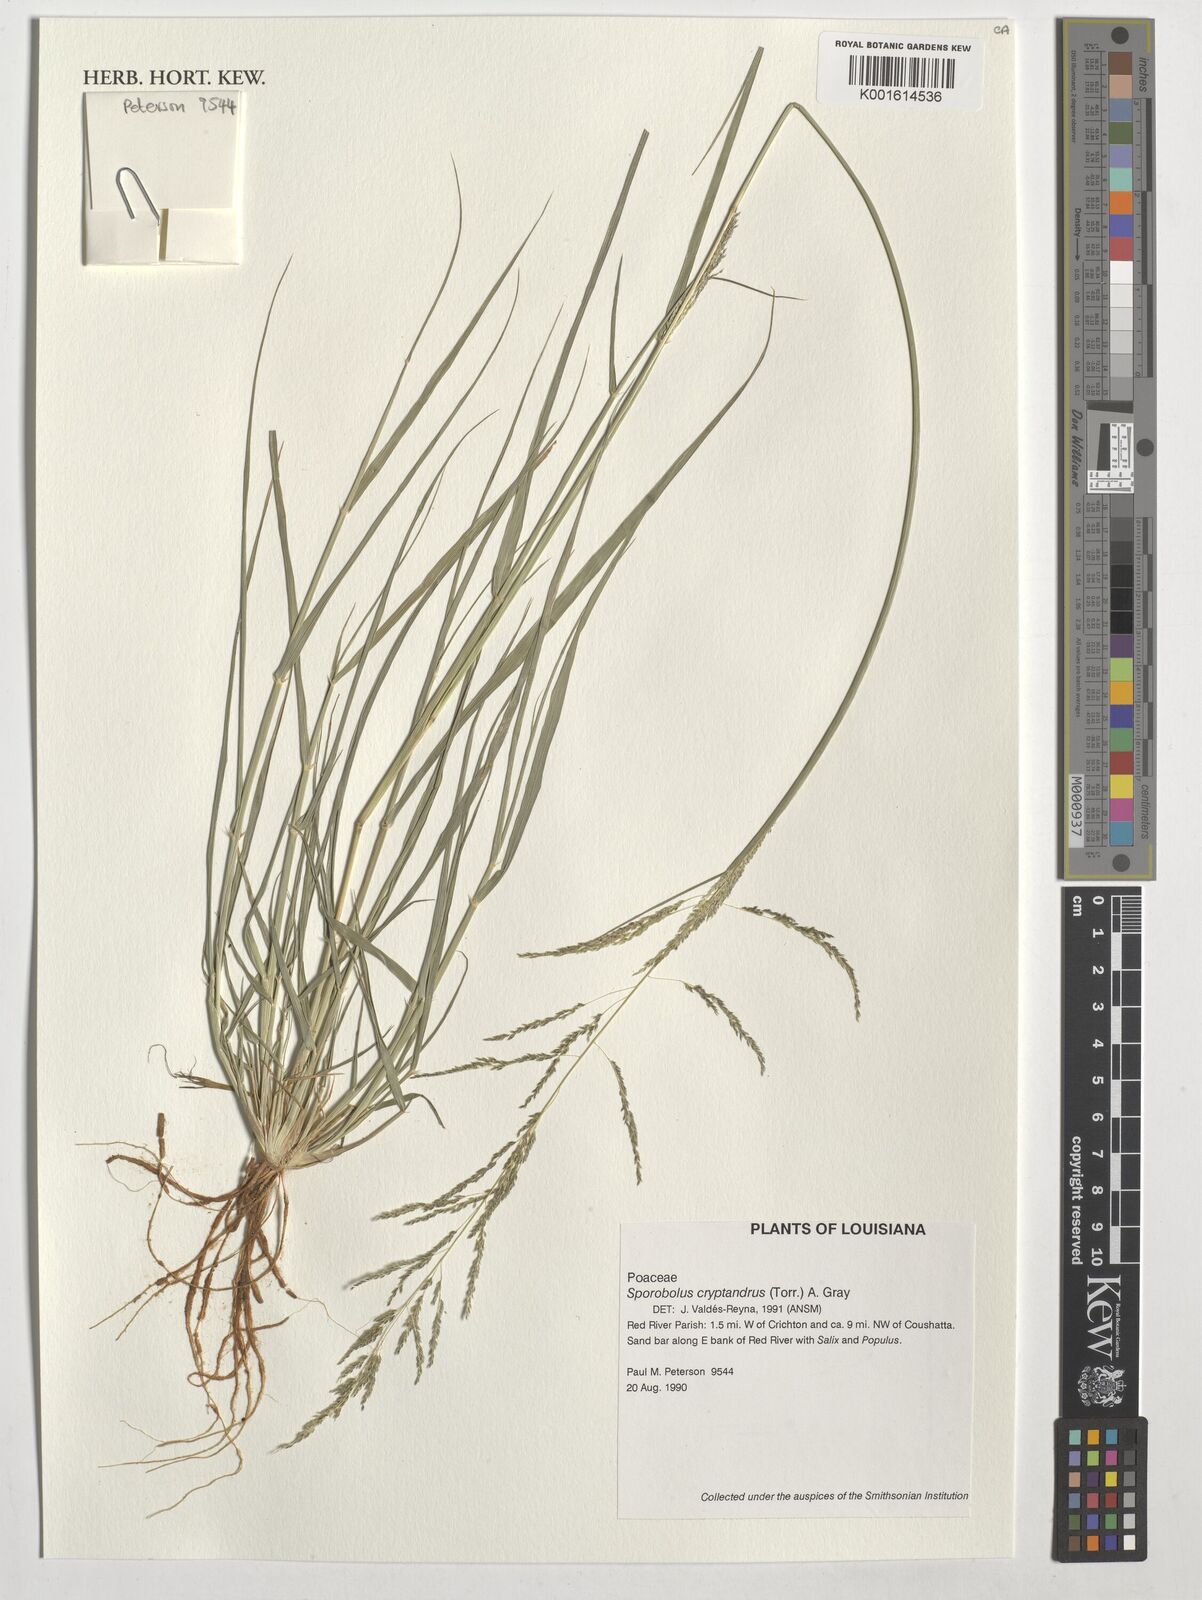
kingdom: Plantae
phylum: Tracheophyta
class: Liliopsida
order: Poales
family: Poaceae
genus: Sporobolus
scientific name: Sporobolus cryptandrus
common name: Sand dropseed
